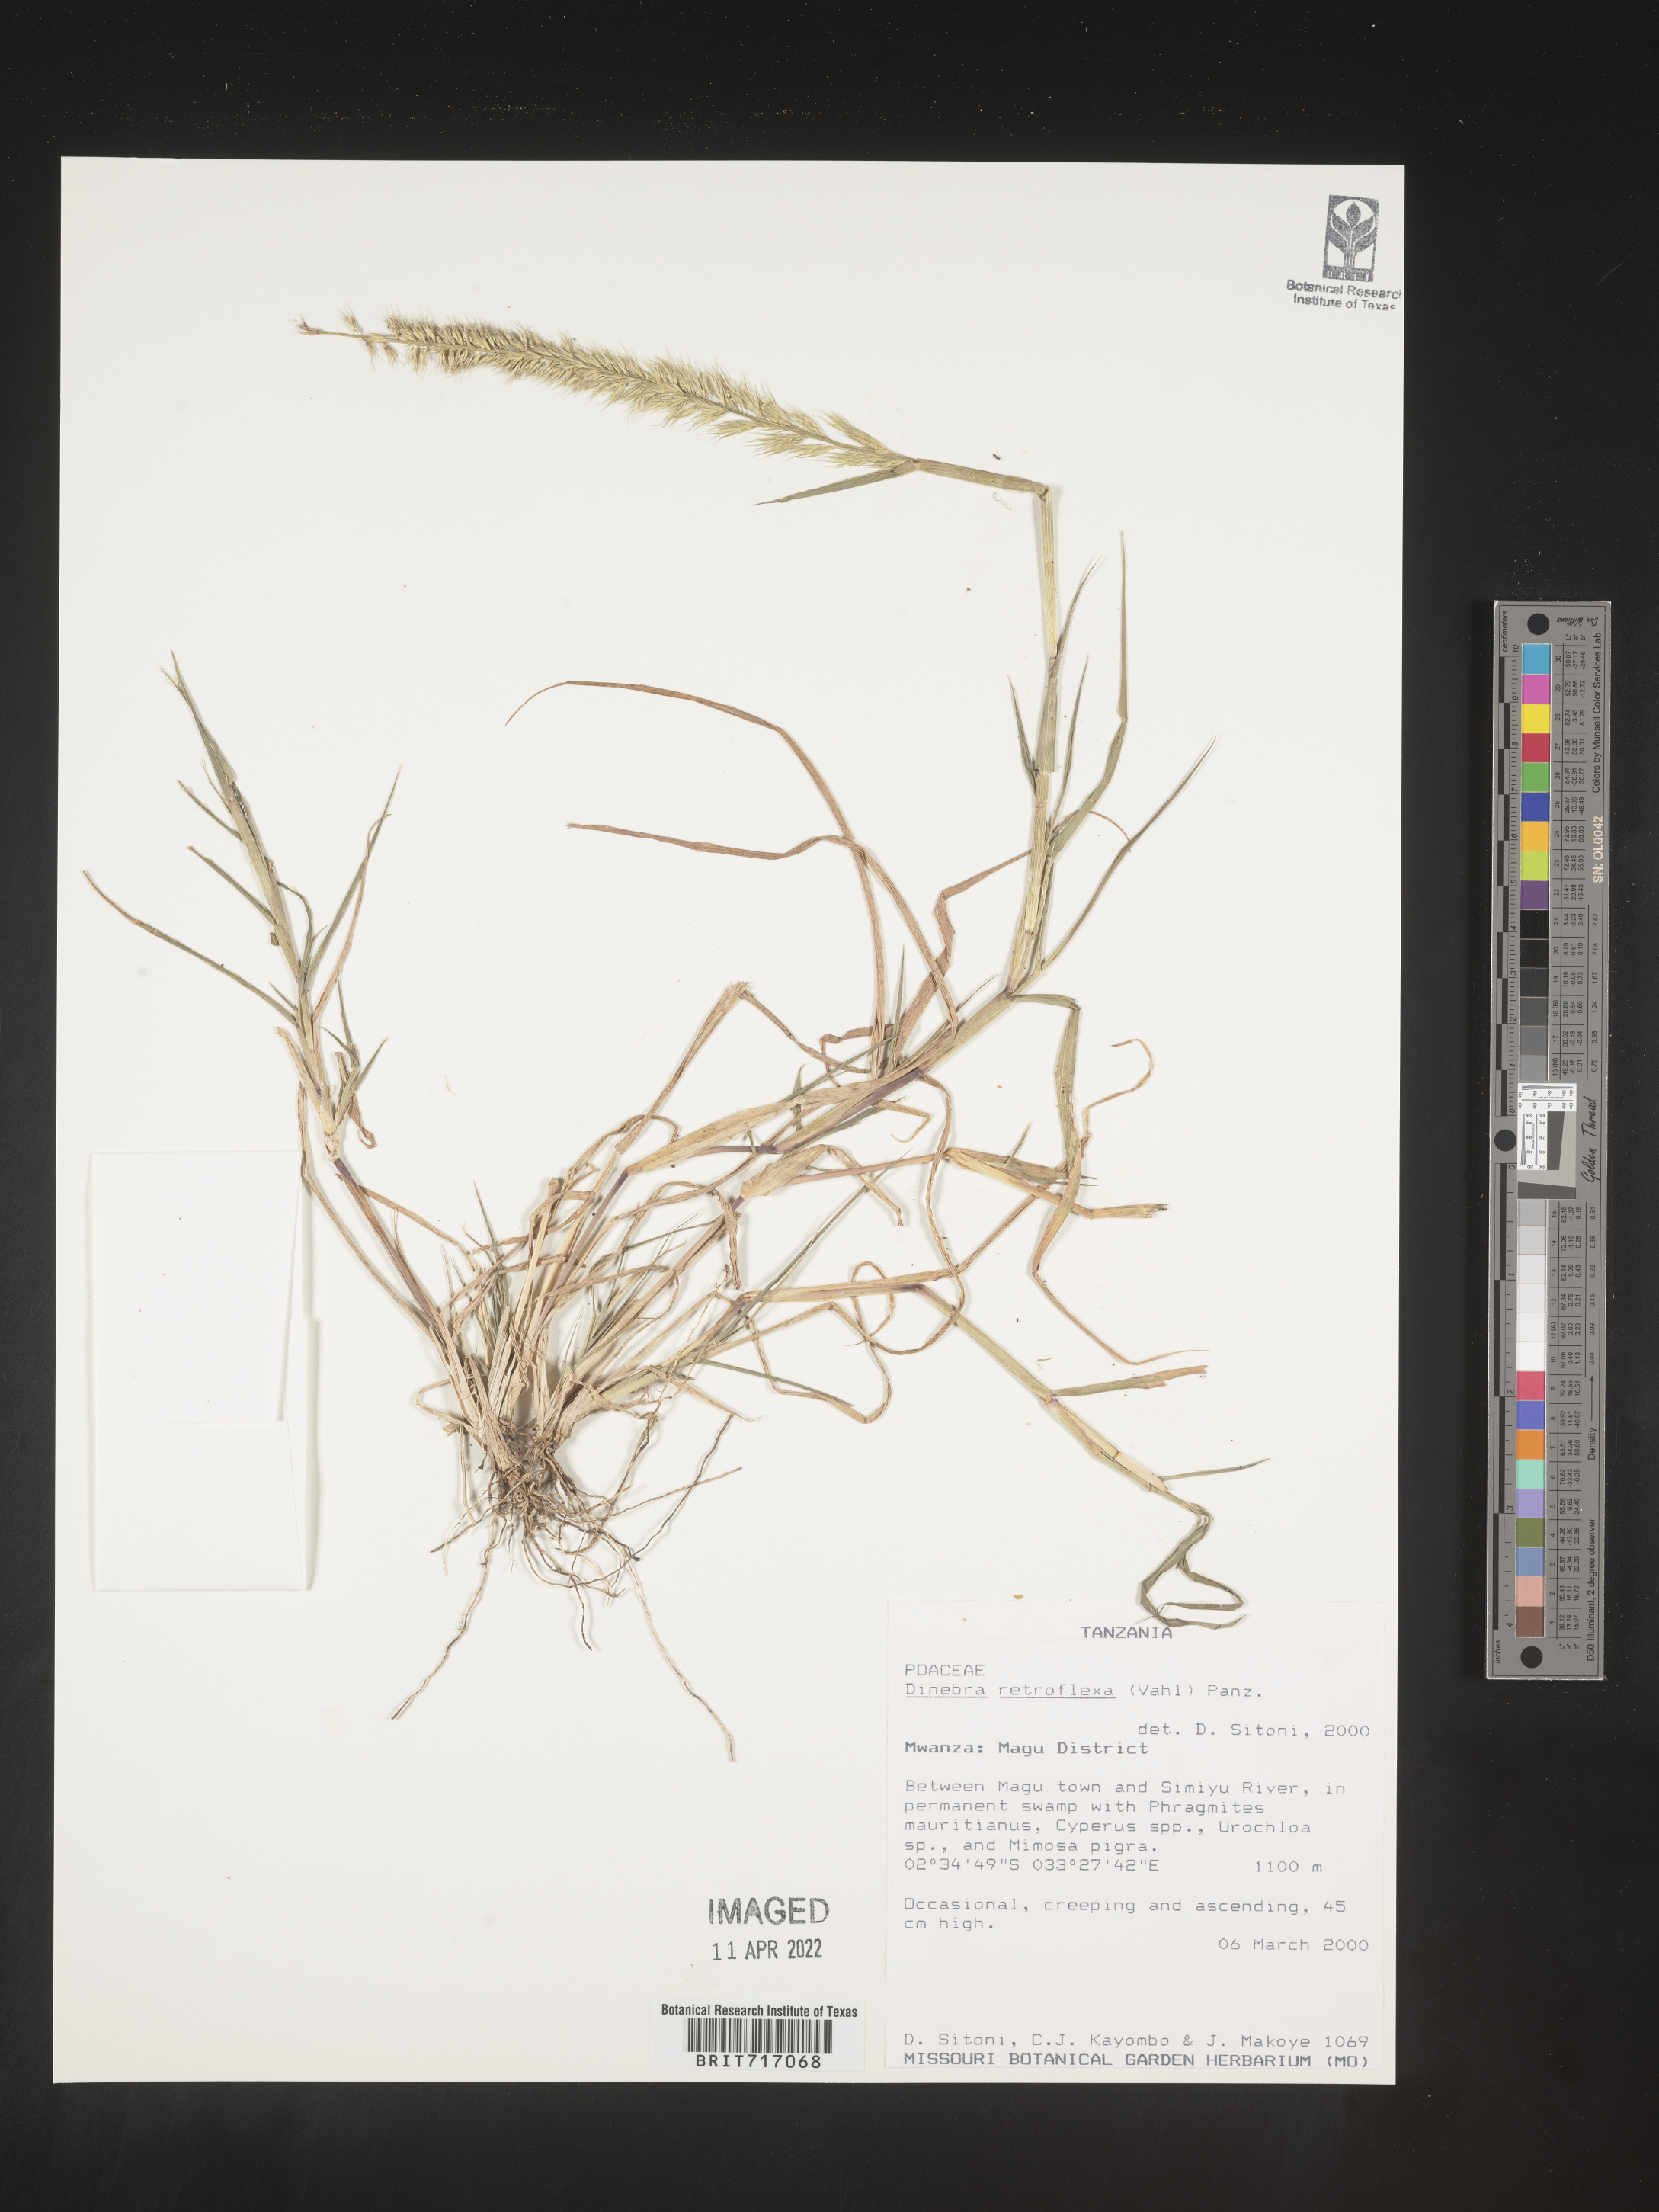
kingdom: Plantae
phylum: Tracheophyta
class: Liliopsida
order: Poales
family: Poaceae
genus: Dinebra
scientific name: Dinebra
